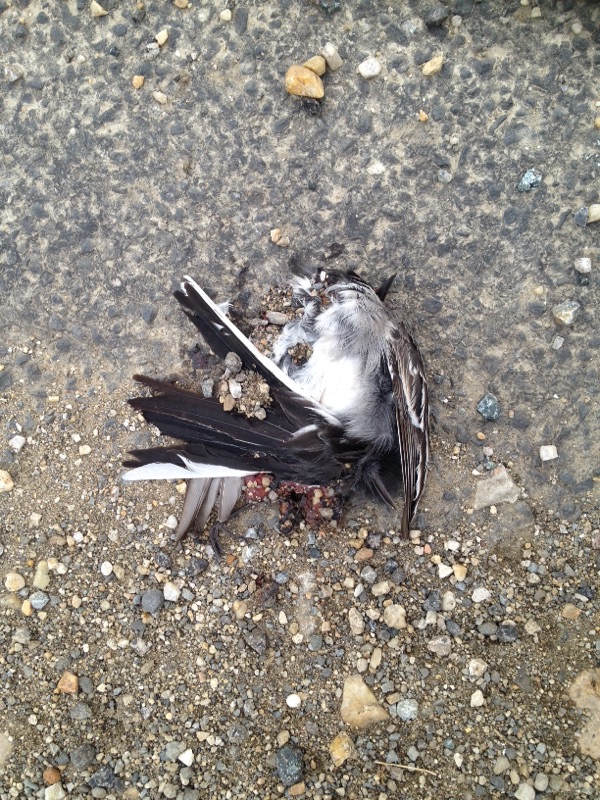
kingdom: Animalia
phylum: Chordata
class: Aves
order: Passeriformes
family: Motacillidae
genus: Motacilla
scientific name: Motacilla alba
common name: White wagtail
